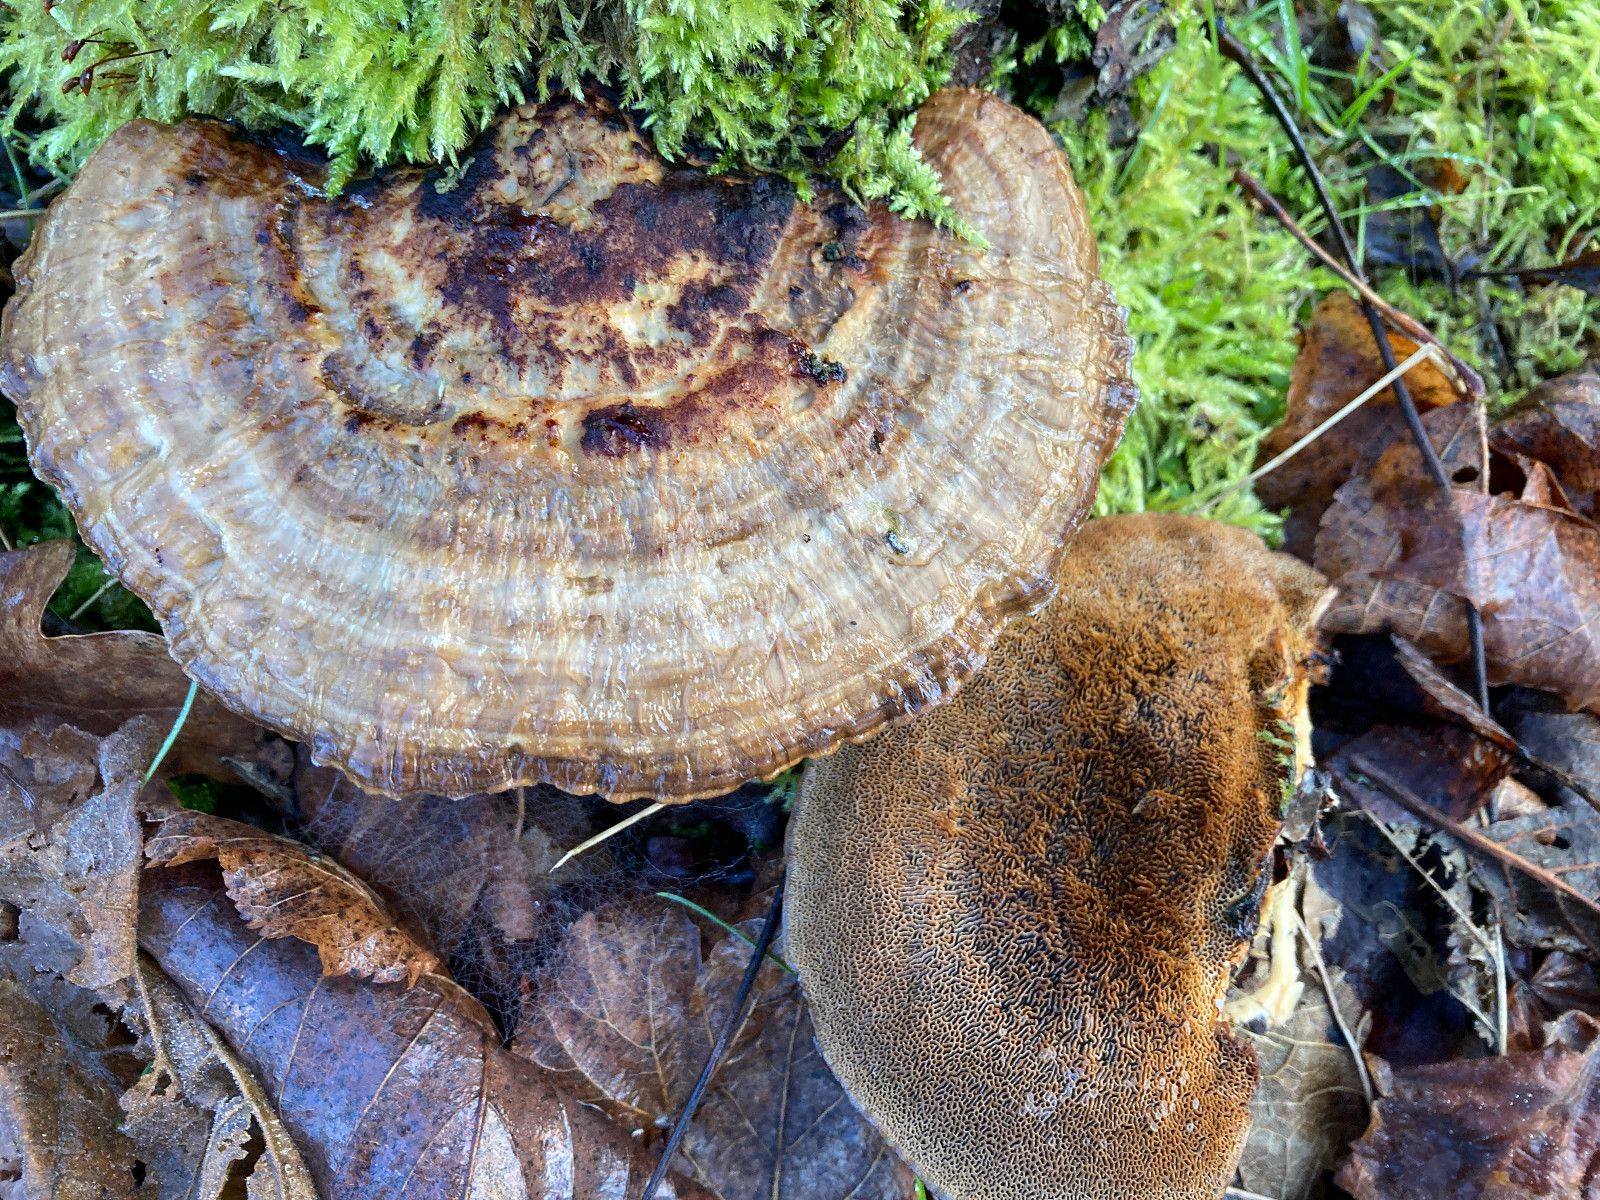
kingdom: Fungi
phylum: Basidiomycota
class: Agaricomycetes
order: Polyporales
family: Polyporaceae
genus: Daedaleopsis
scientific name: Daedaleopsis confragosa
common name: rødmende læderporesvamp
